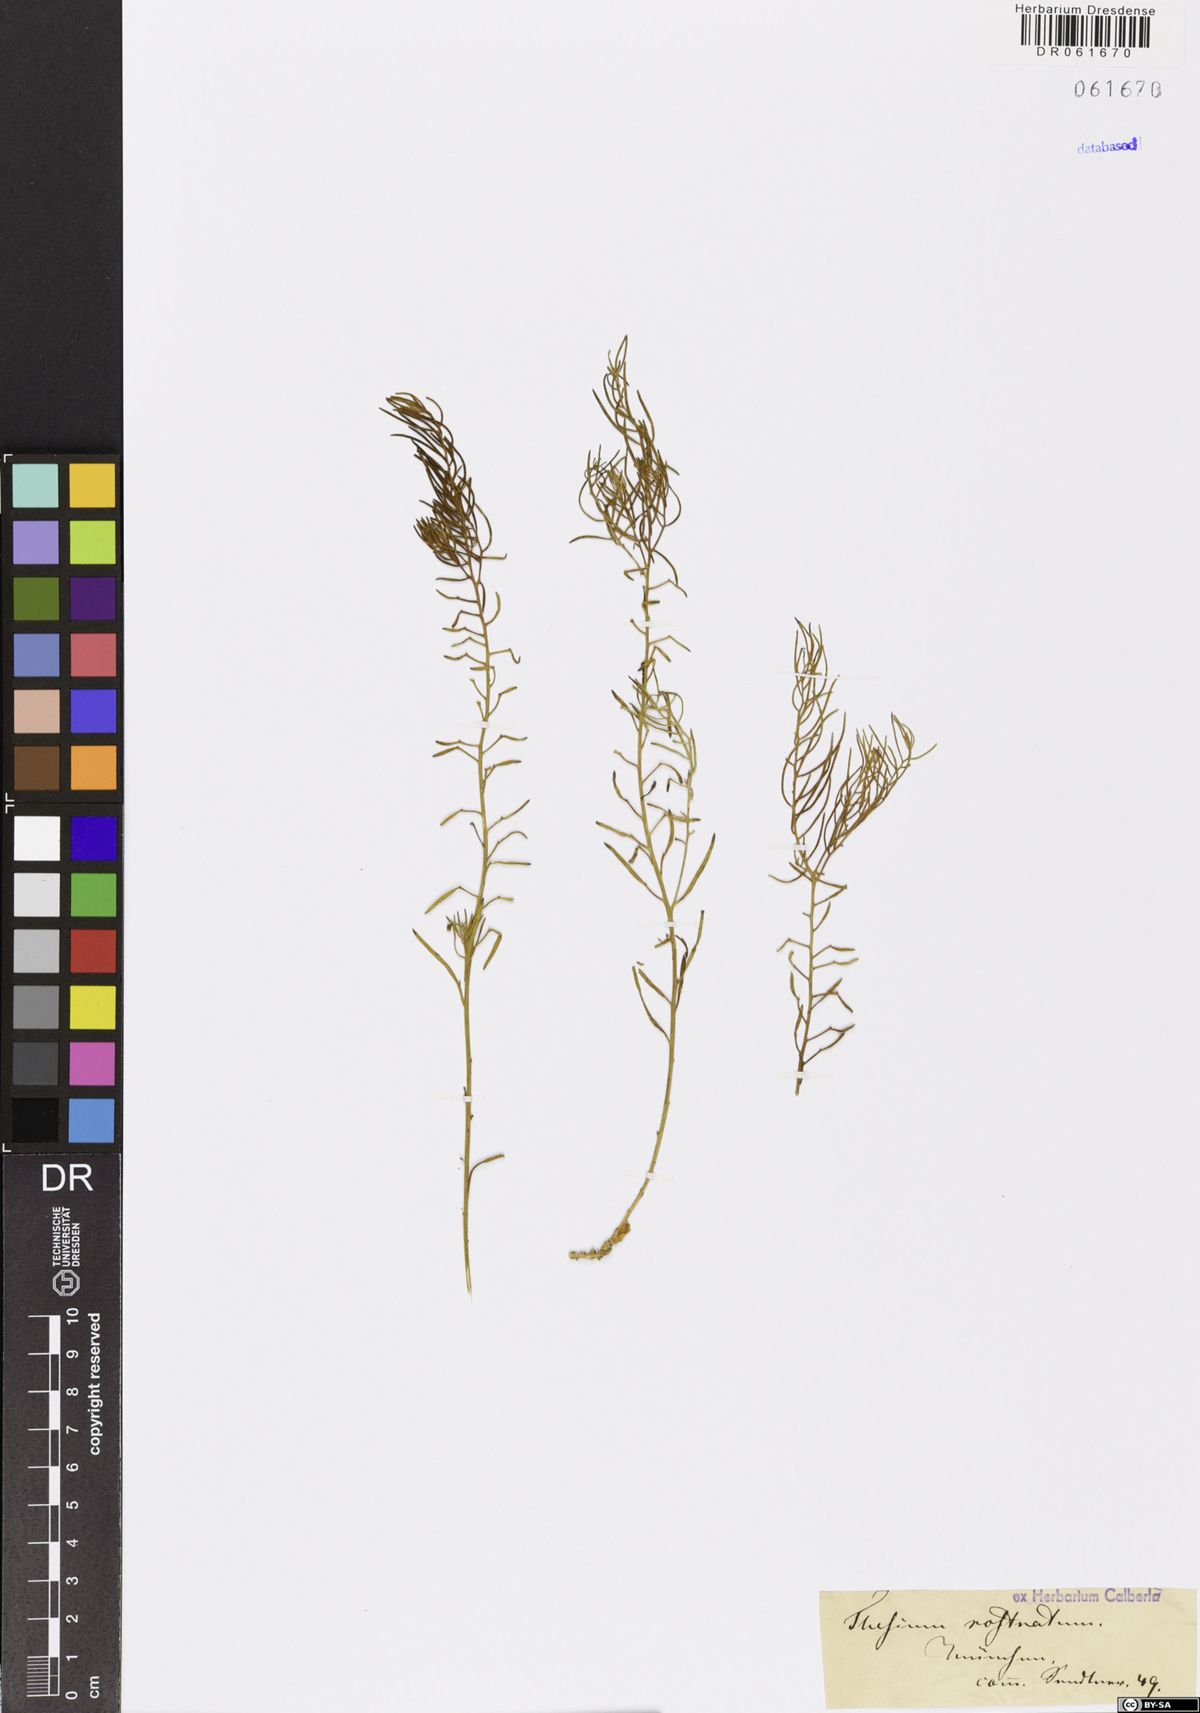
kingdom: Plantae
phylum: Tracheophyta
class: Magnoliopsida
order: Santalales
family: Thesiaceae
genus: Thesium
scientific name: Thesium rostratum
